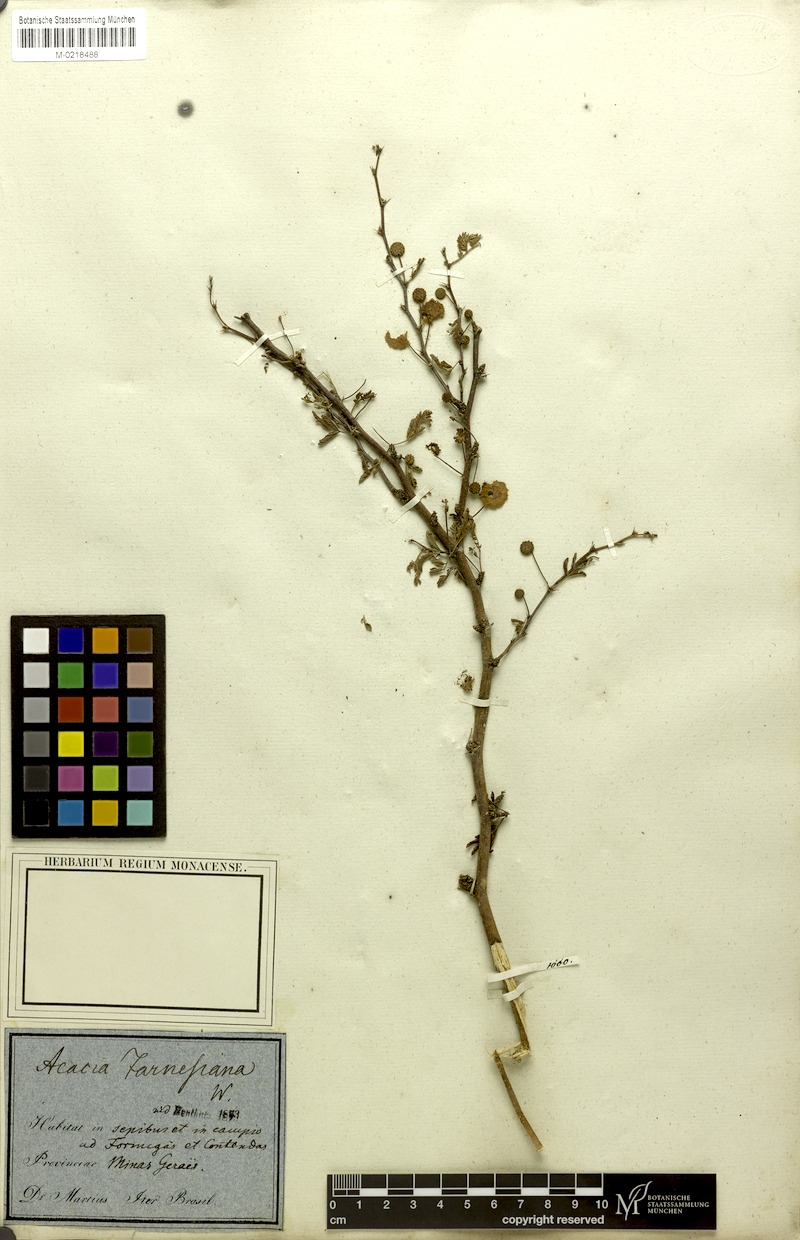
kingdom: Plantae
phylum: Tracheophyta
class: Magnoliopsida
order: Fabales
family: Fabaceae
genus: Vachellia
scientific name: Vachellia farnesiana
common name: Sweet acacia
